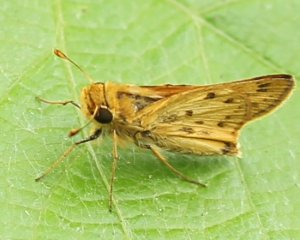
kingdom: Animalia
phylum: Arthropoda
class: Insecta
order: Lepidoptera
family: Hesperiidae
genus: Hylephila
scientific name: Hylephila phyleus
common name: Fiery Skipper
